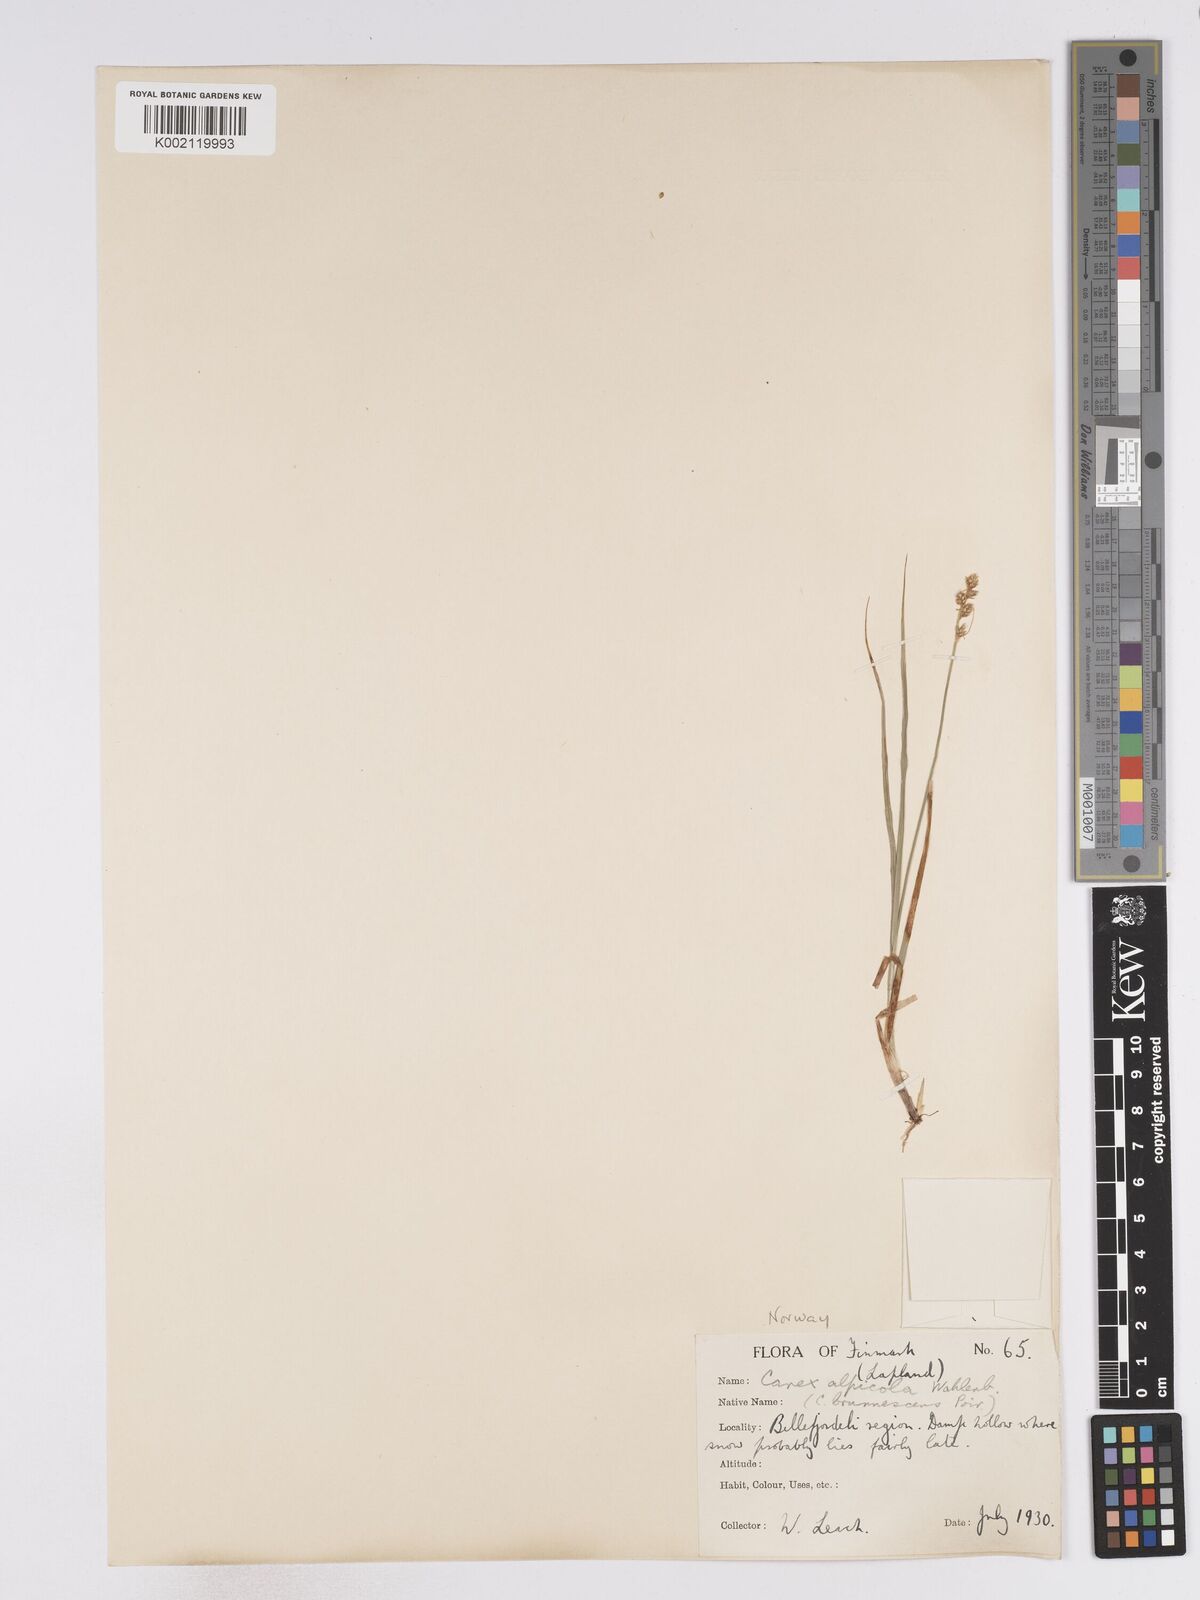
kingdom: Plantae
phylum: Tracheophyta
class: Liliopsida
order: Poales
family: Cyperaceae
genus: Carex
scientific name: Carex brunnescens
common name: Brown sedge
